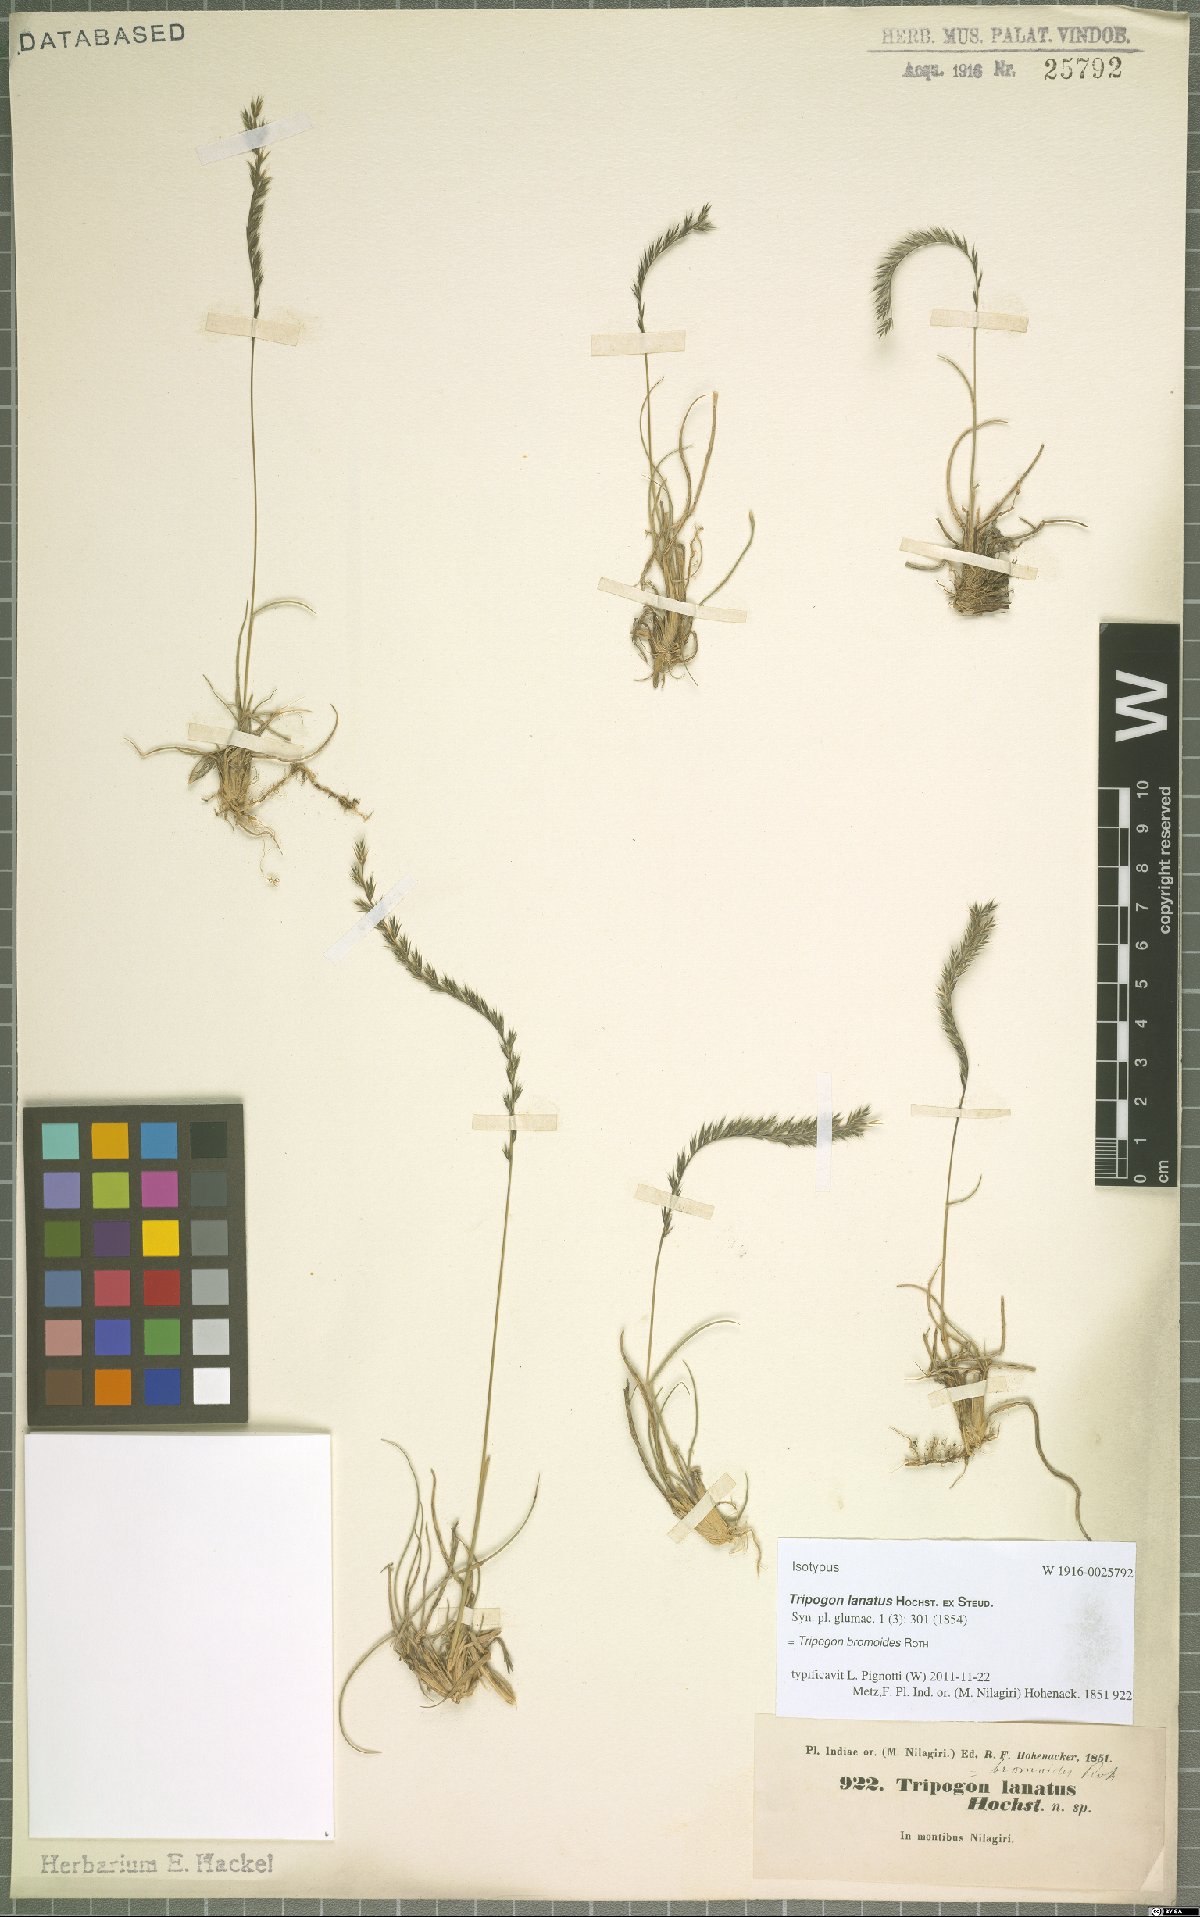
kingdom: Plantae
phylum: Tracheophyta
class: Liliopsida
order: Poales
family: Poaceae
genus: Tripogon
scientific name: Tripogon bromoides
